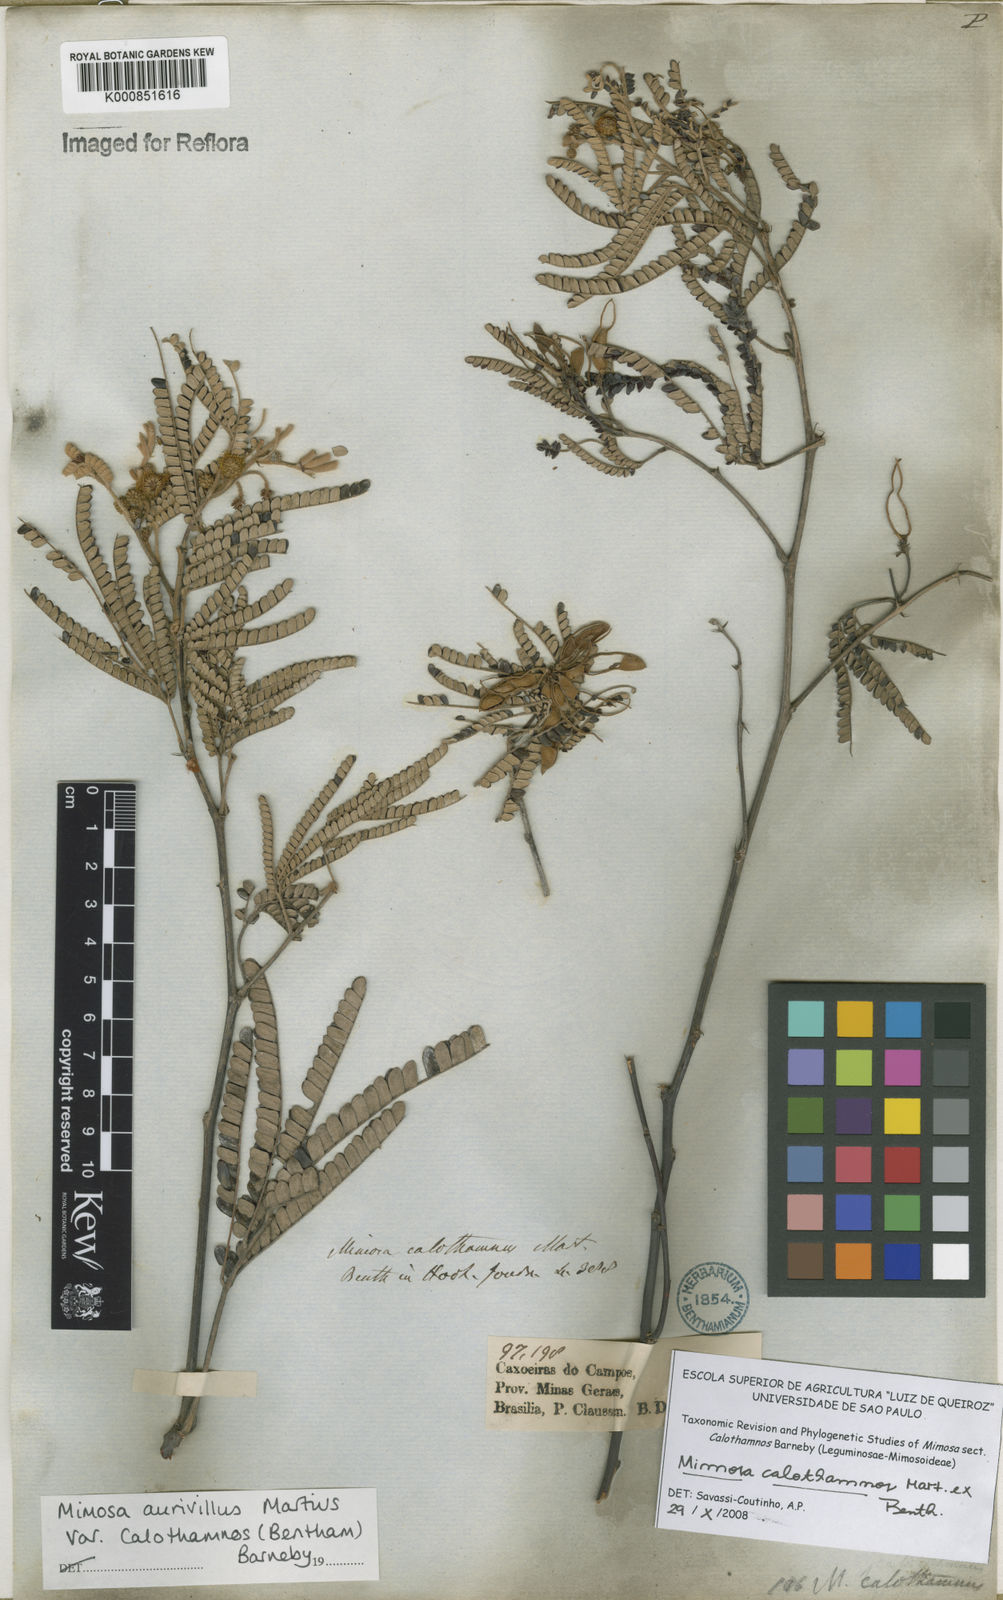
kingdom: Plantae
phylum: Tracheophyta
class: Magnoliopsida
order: Fabales
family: Fabaceae
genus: Mimosa
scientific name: Mimosa aurivillus
